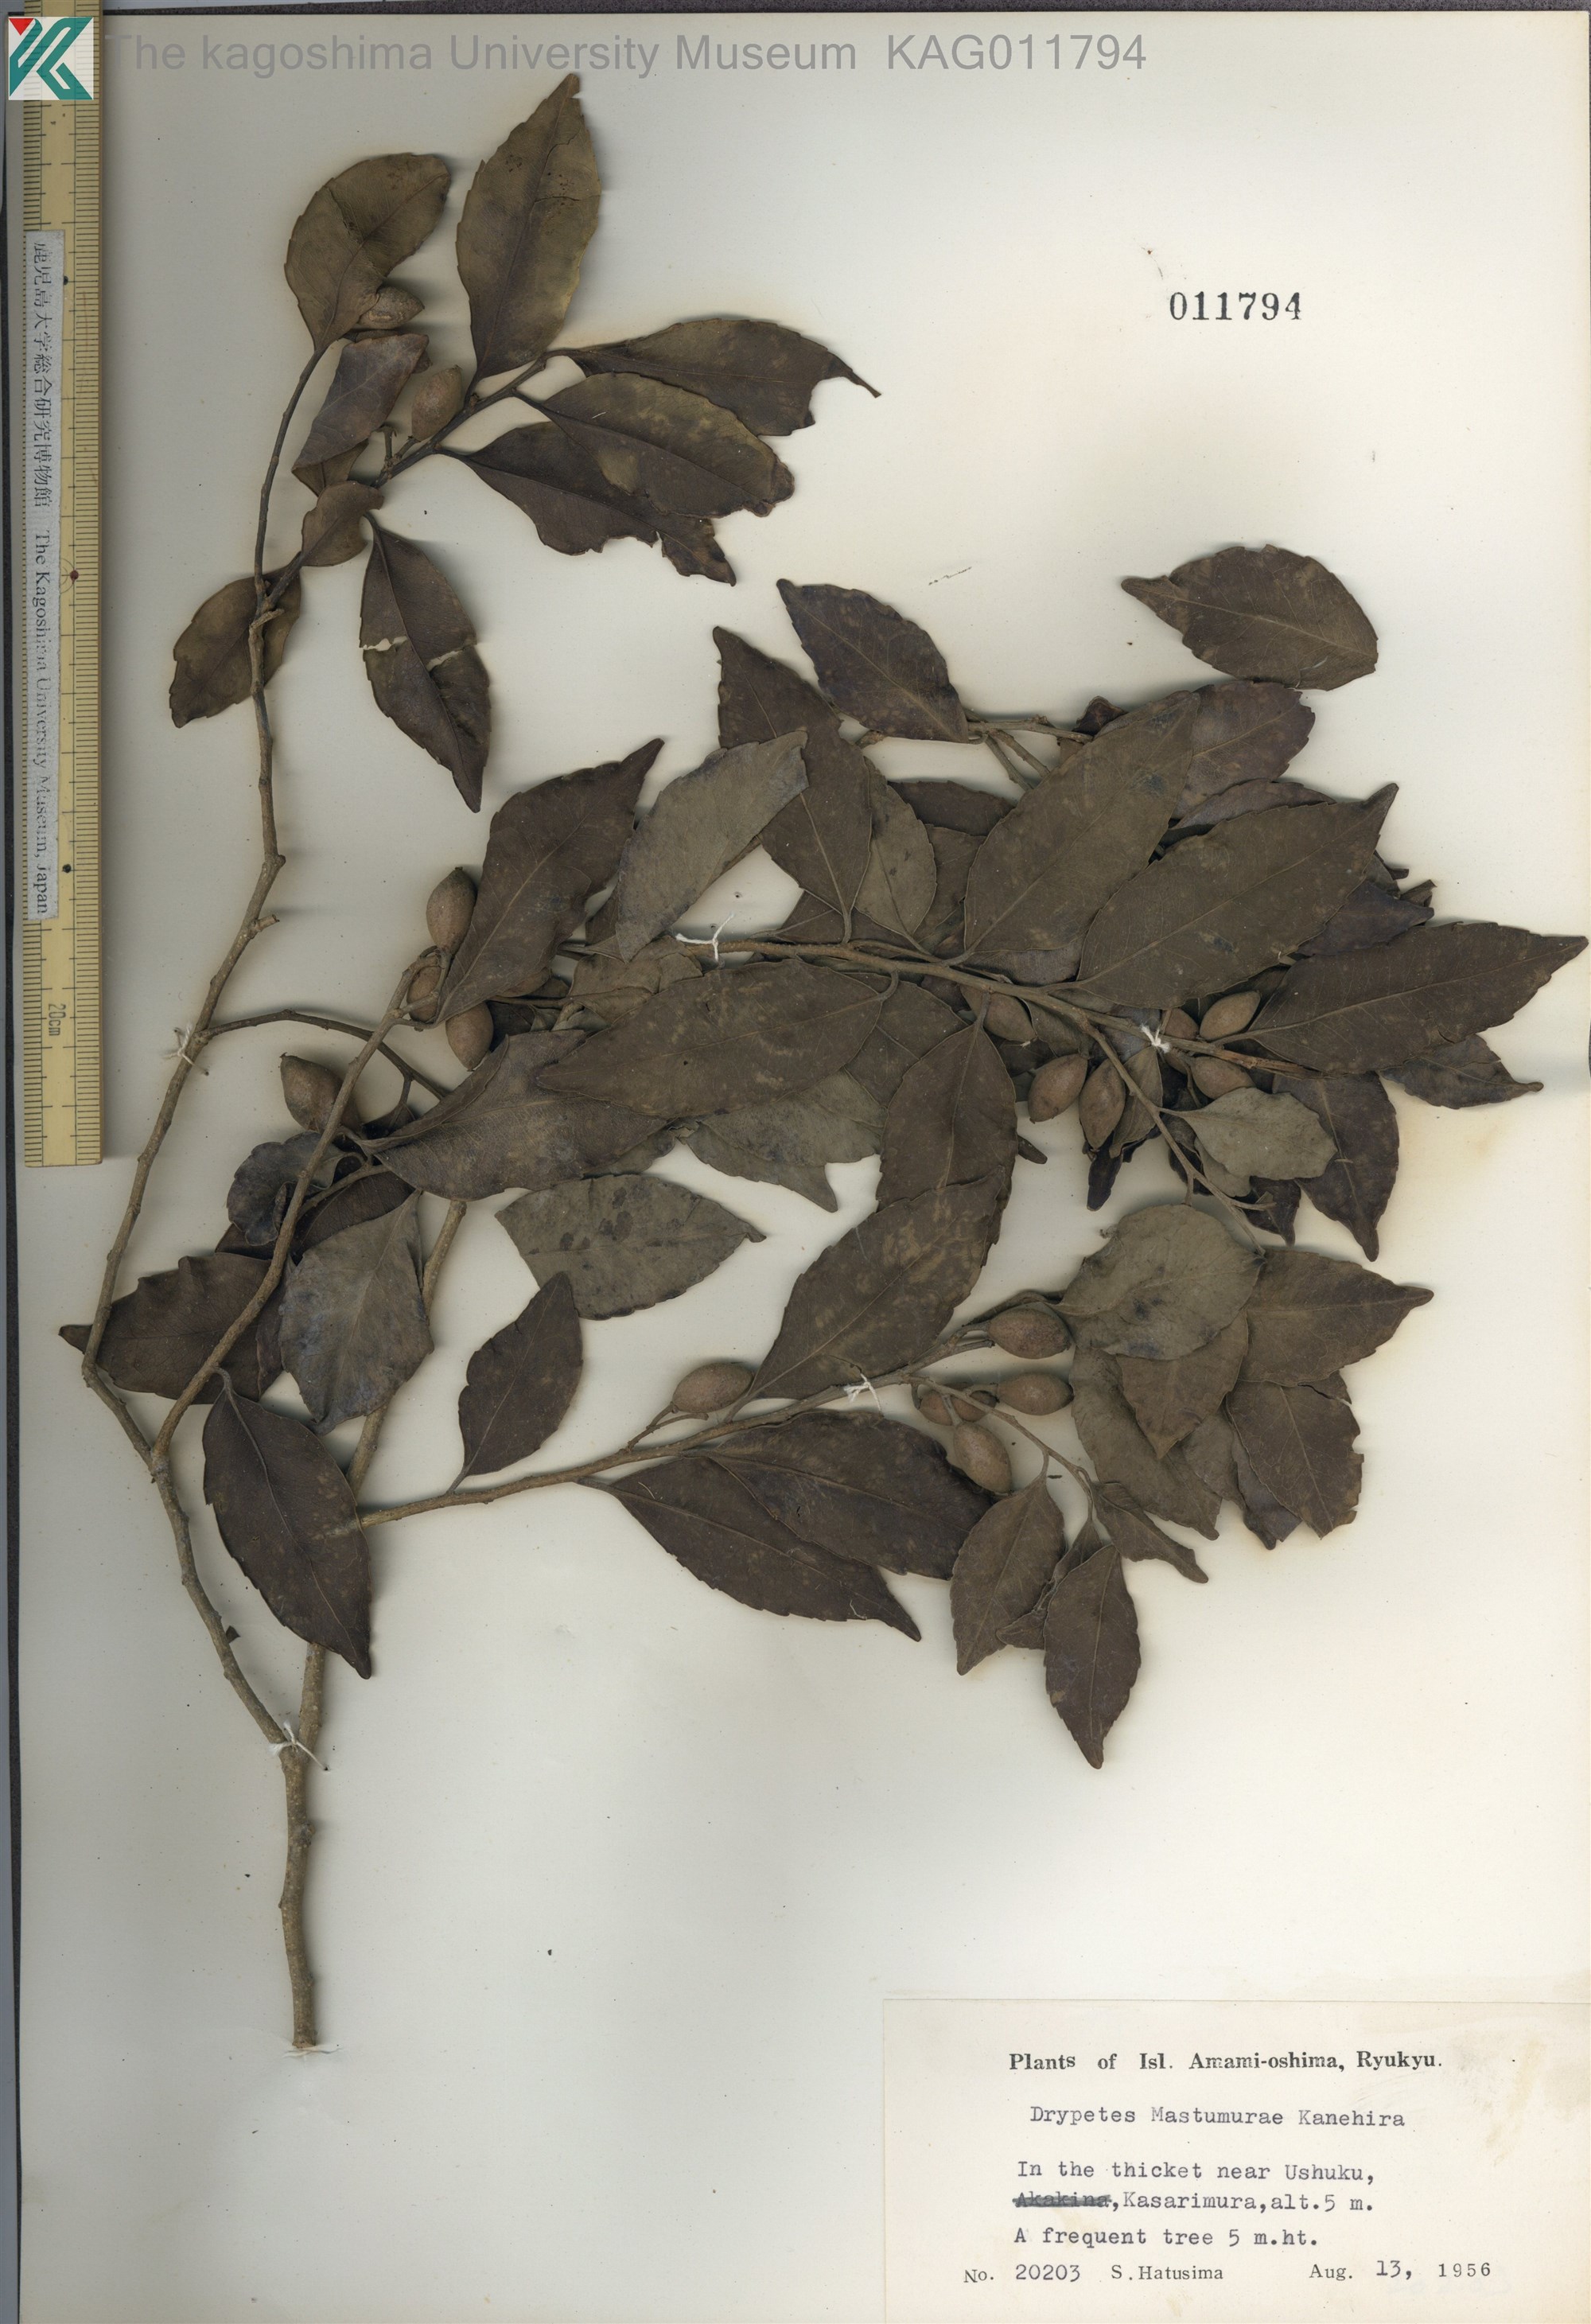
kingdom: Plantae
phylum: Tracheophyta
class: Magnoliopsida
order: Malpighiales
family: Putranjivaceae
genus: Putranjiva
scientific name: Putranjiva matsumurae
